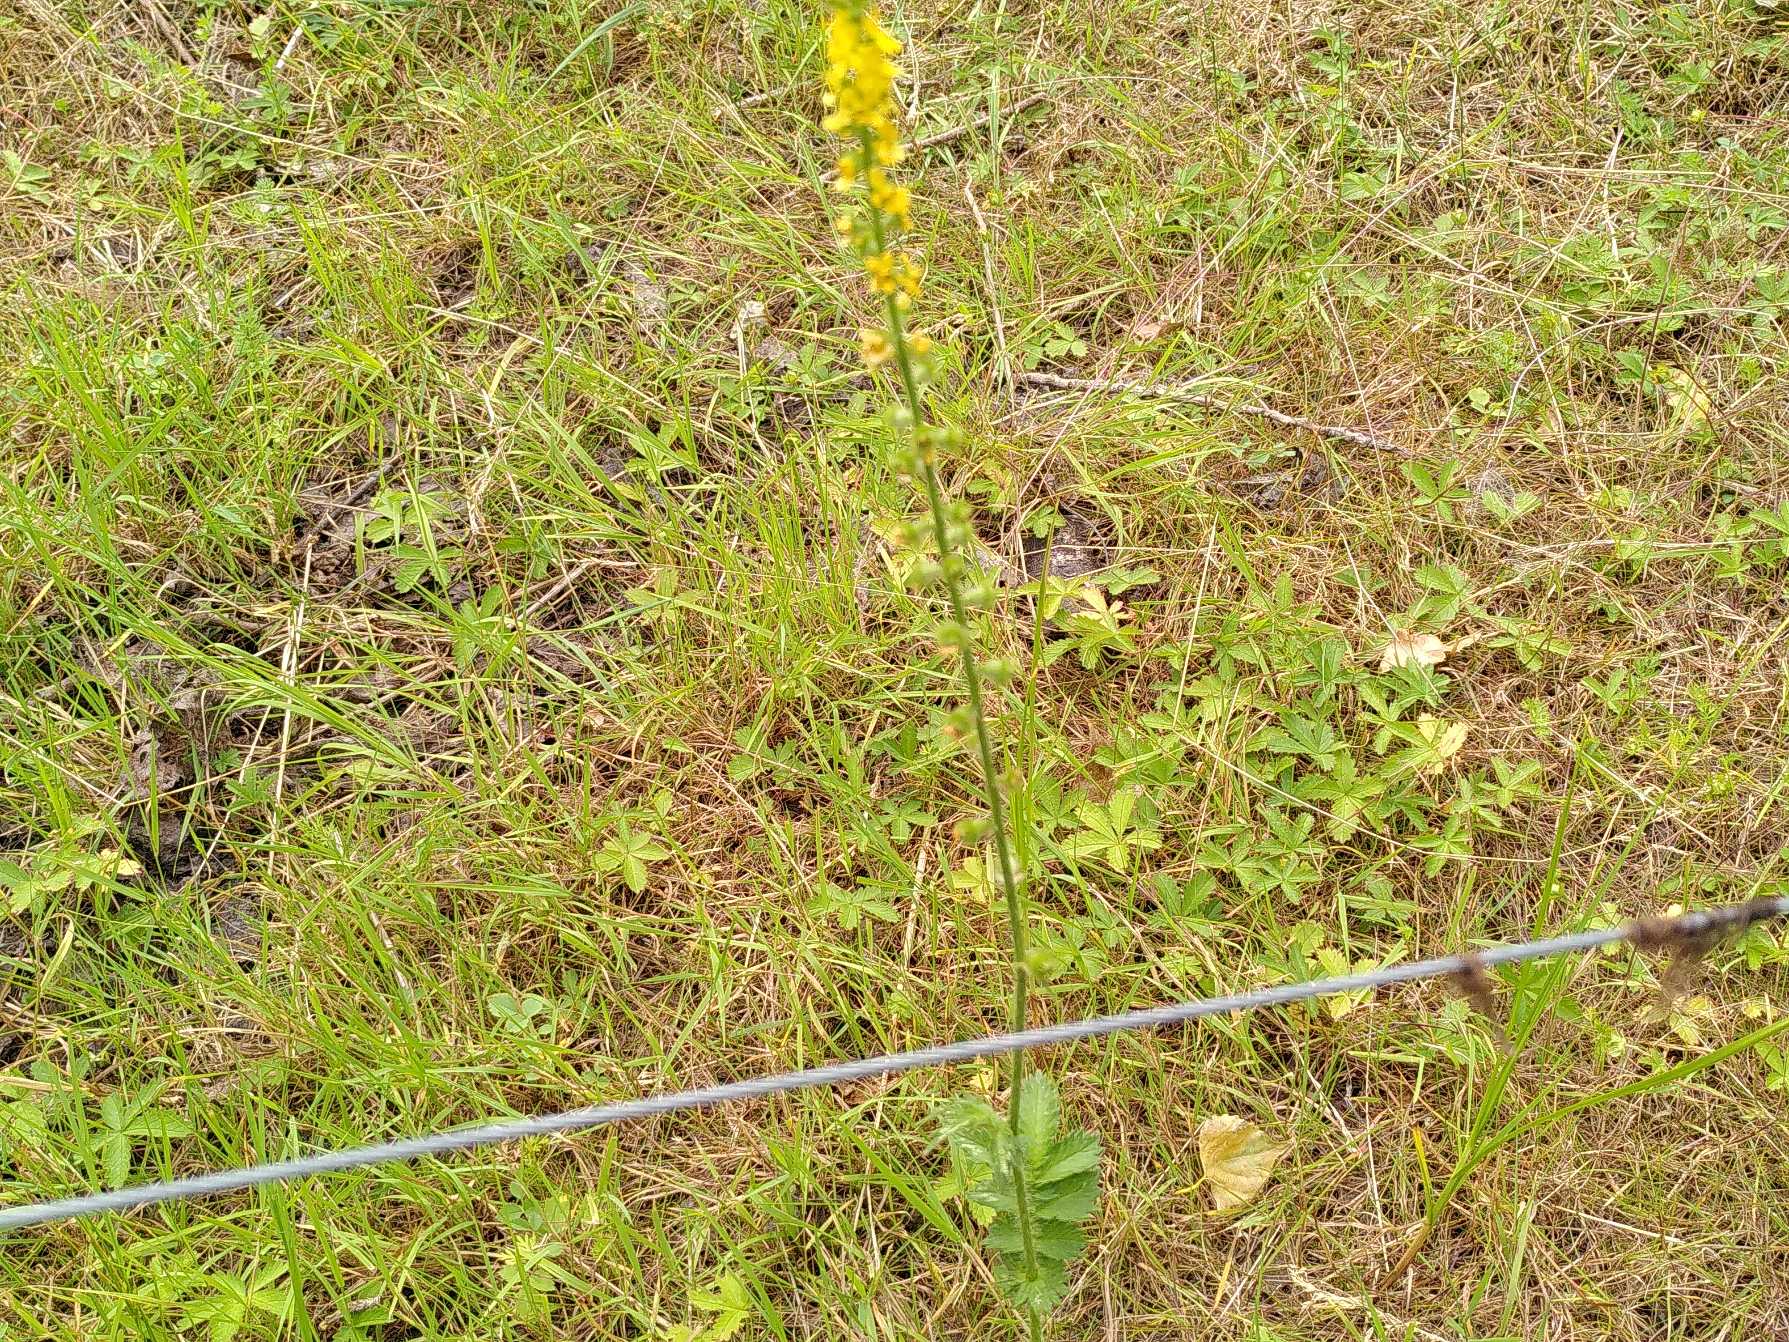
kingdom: Plantae
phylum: Tracheophyta
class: Magnoliopsida
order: Rosales
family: Rosaceae
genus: Agrimonia
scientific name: Agrimonia eupatoria
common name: Almindelig agermåne
